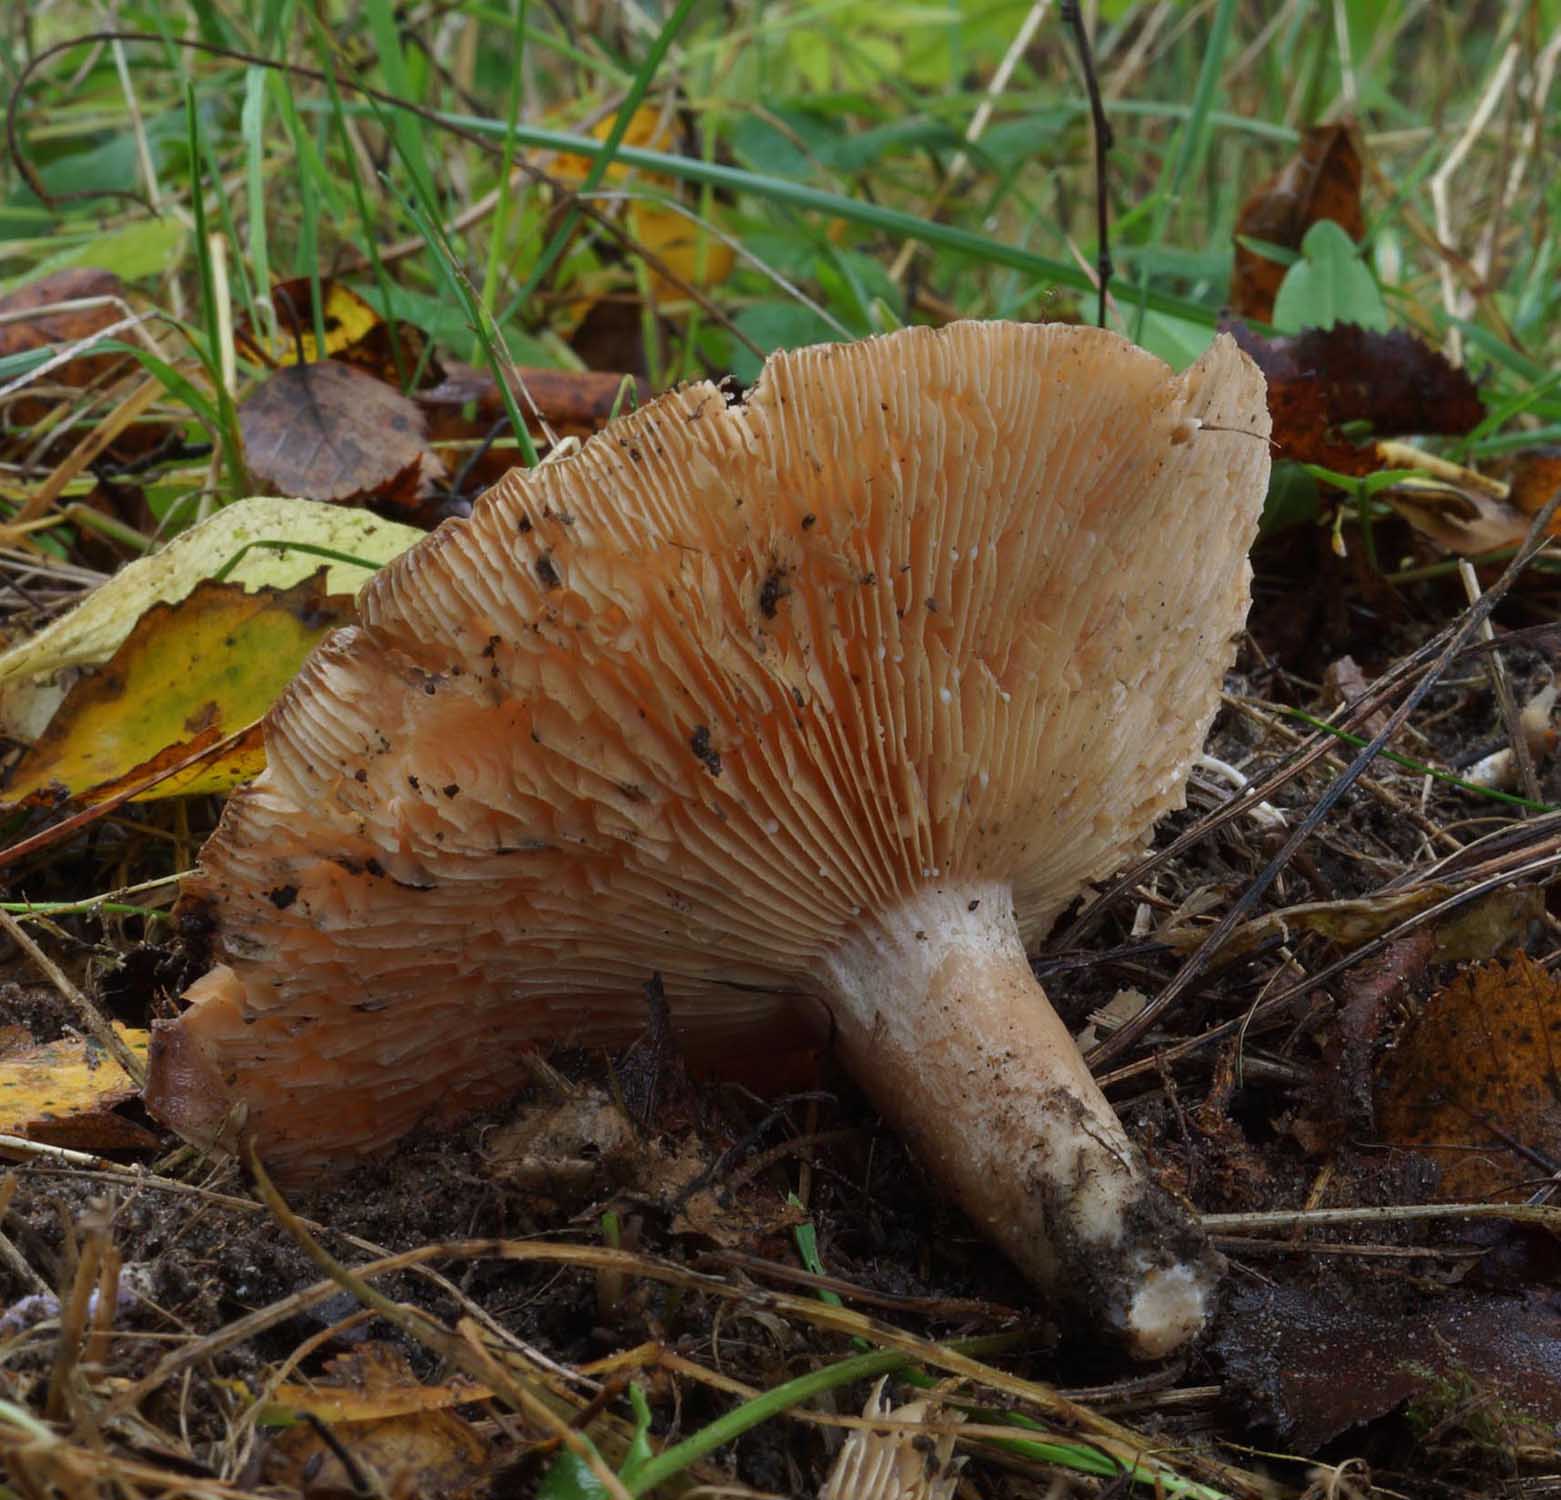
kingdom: Fungi
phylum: Basidiomycota
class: Agaricomycetes
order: Russulales
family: Russulaceae
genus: Lactarius
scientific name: Lactarius helvus
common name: mose-mælkehat
